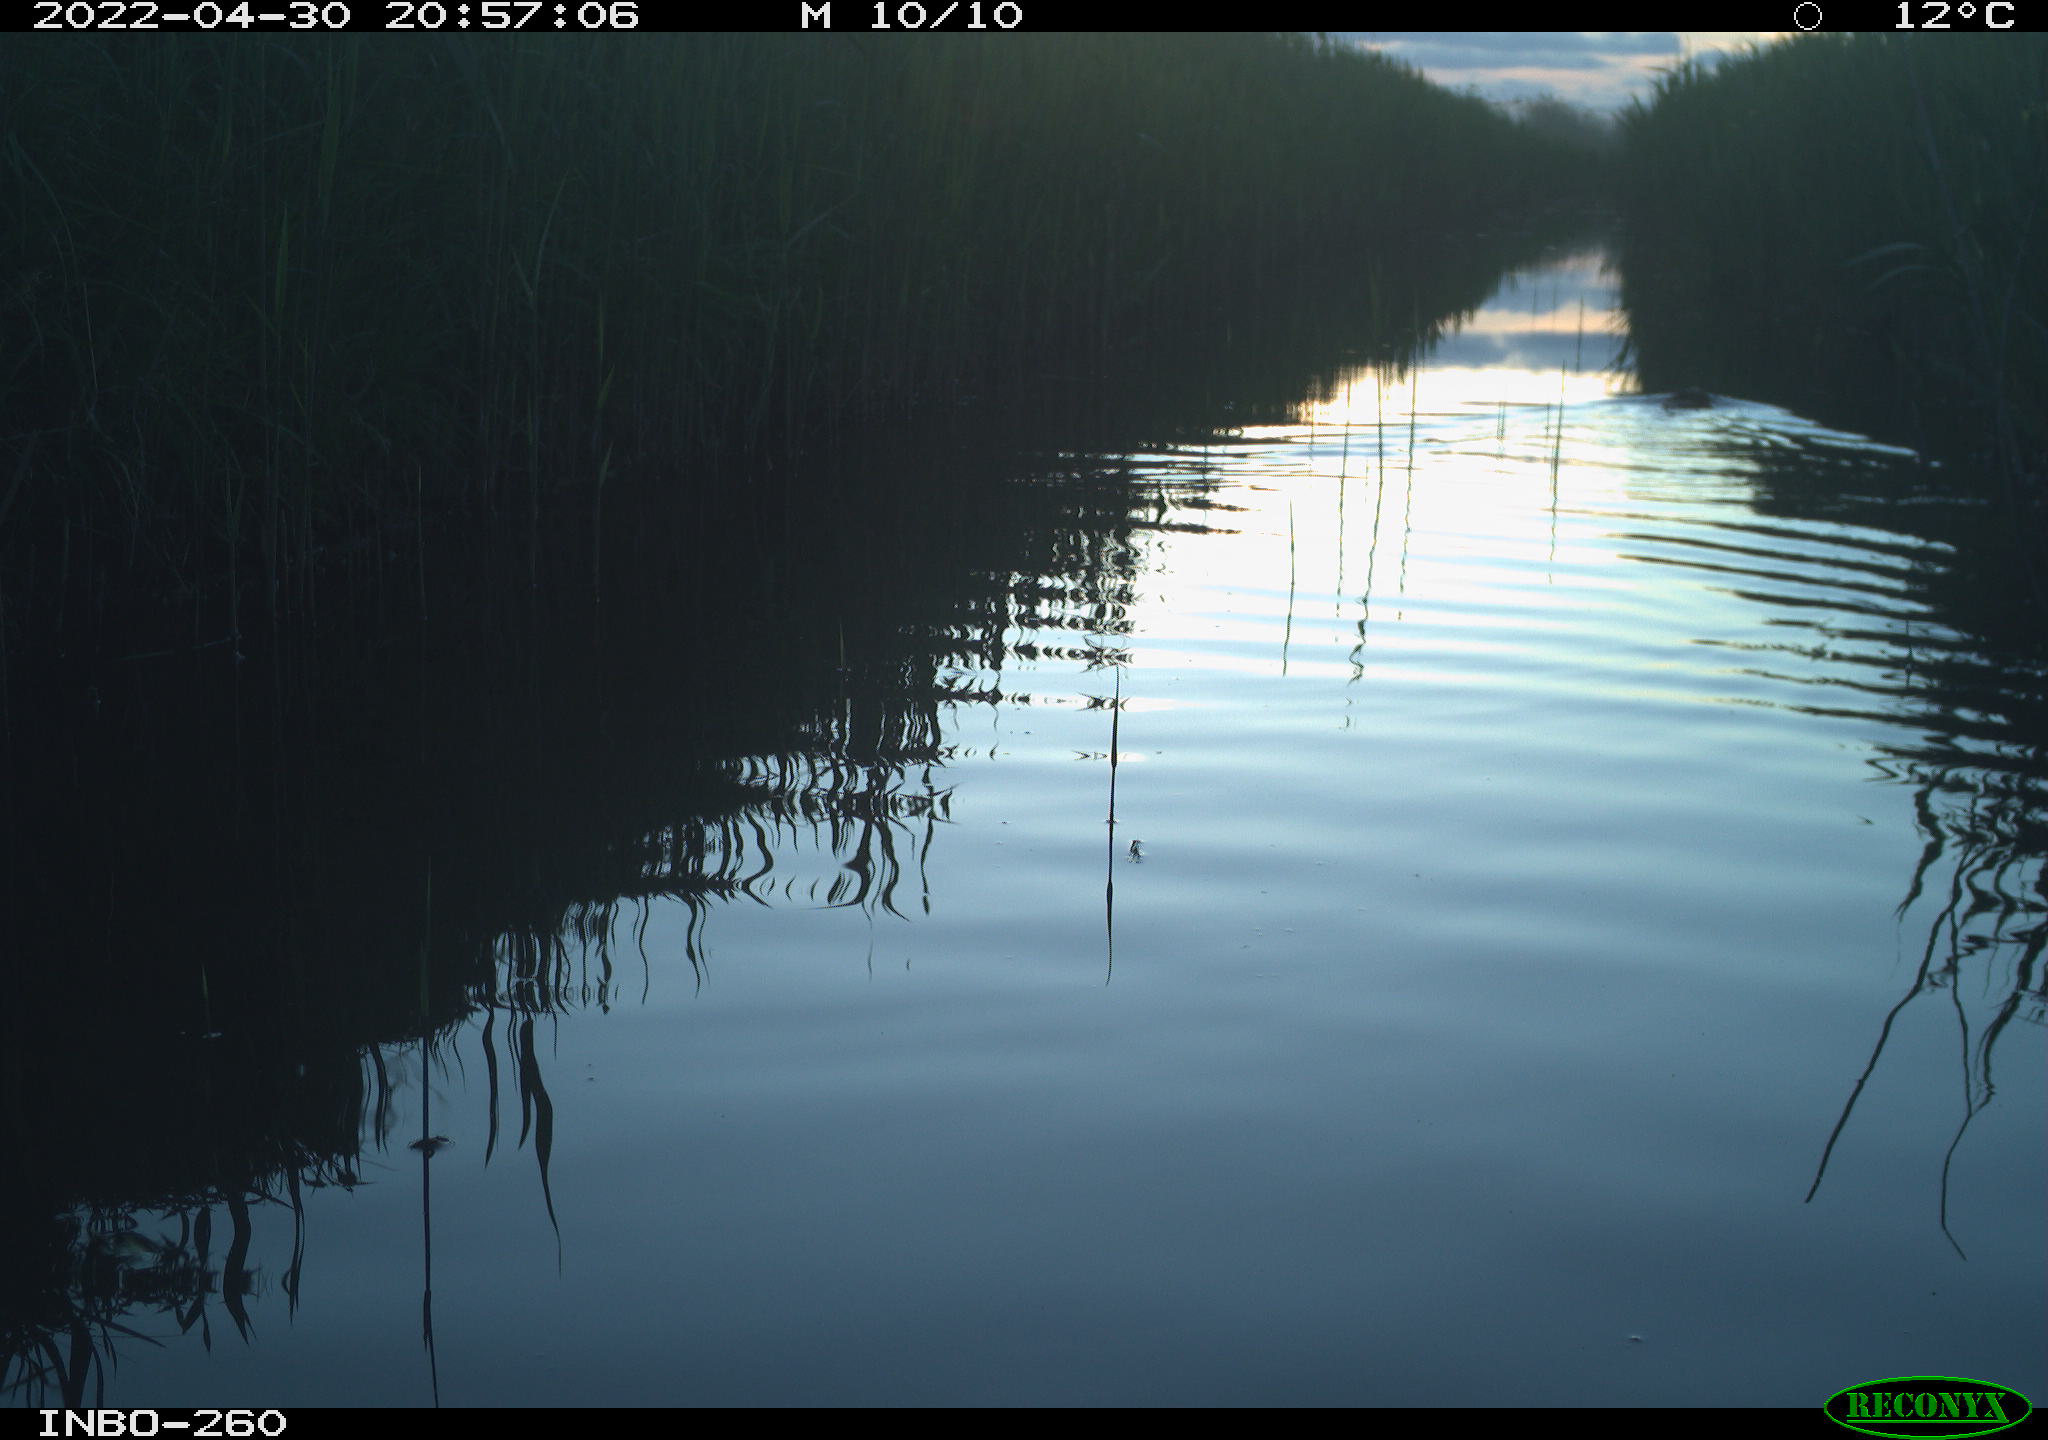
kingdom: Animalia
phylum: Chordata
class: Mammalia
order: Rodentia
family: Cricetidae
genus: Ondatra
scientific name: Ondatra zibethicus
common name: Muskrat
